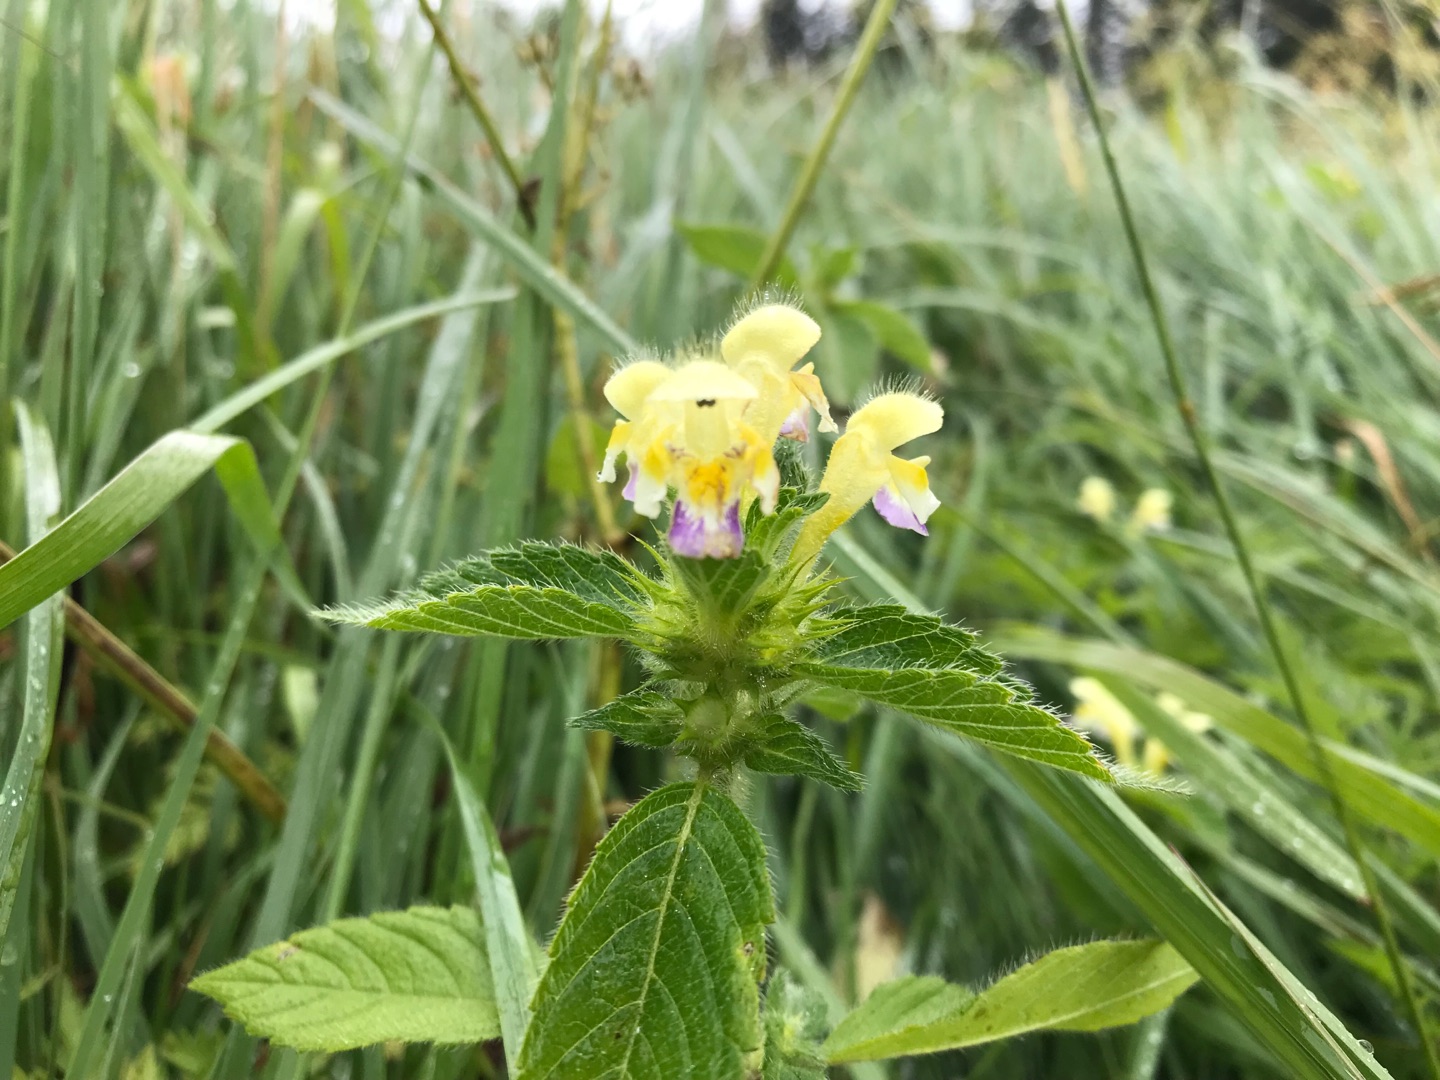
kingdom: Plantae
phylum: Tracheophyta
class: Magnoliopsida
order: Lamiales
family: Lamiaceae
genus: Galeopsis
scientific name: Galeopsis speciosa
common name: Hamp-hanekro
